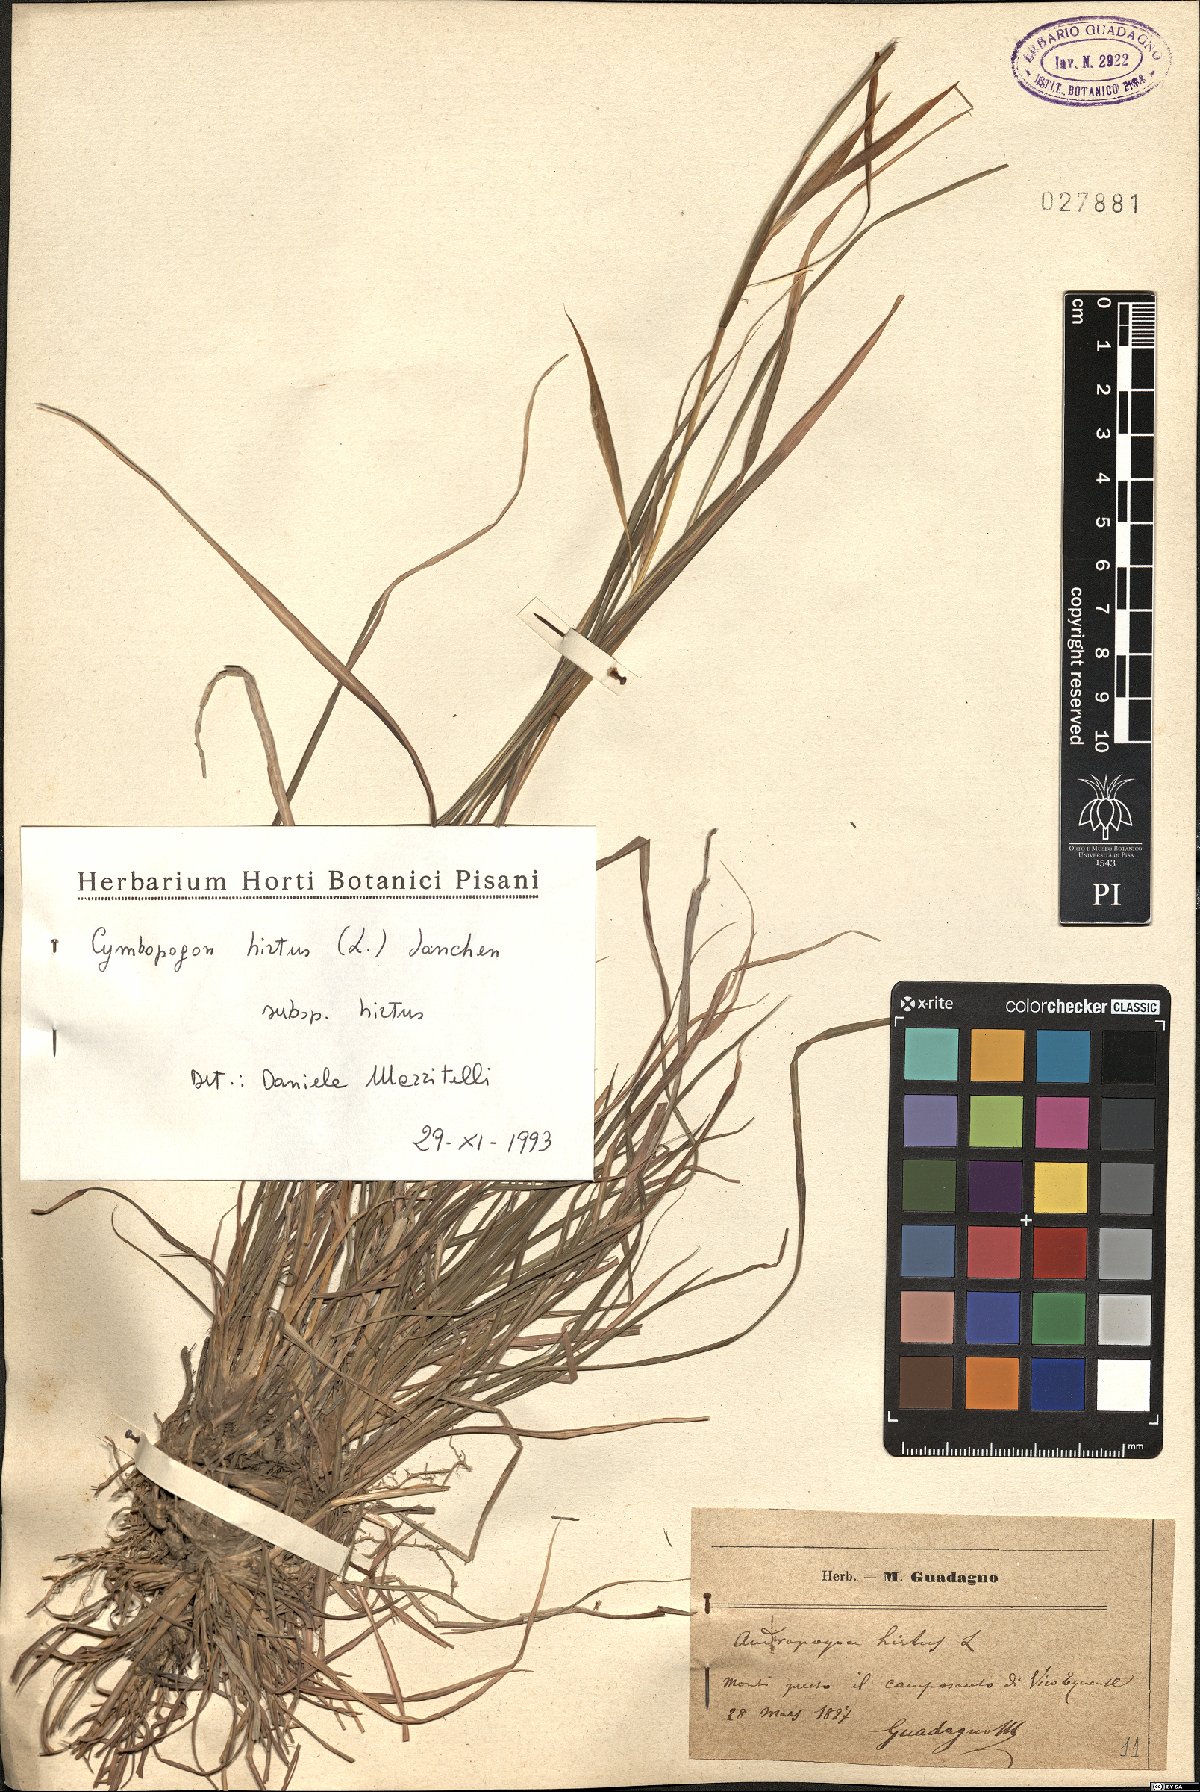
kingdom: Plantae
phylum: Tracheophyta
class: Liliopsida
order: Poales
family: Poaceae
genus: Cymbopogon
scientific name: Cymbopogon hirtus
